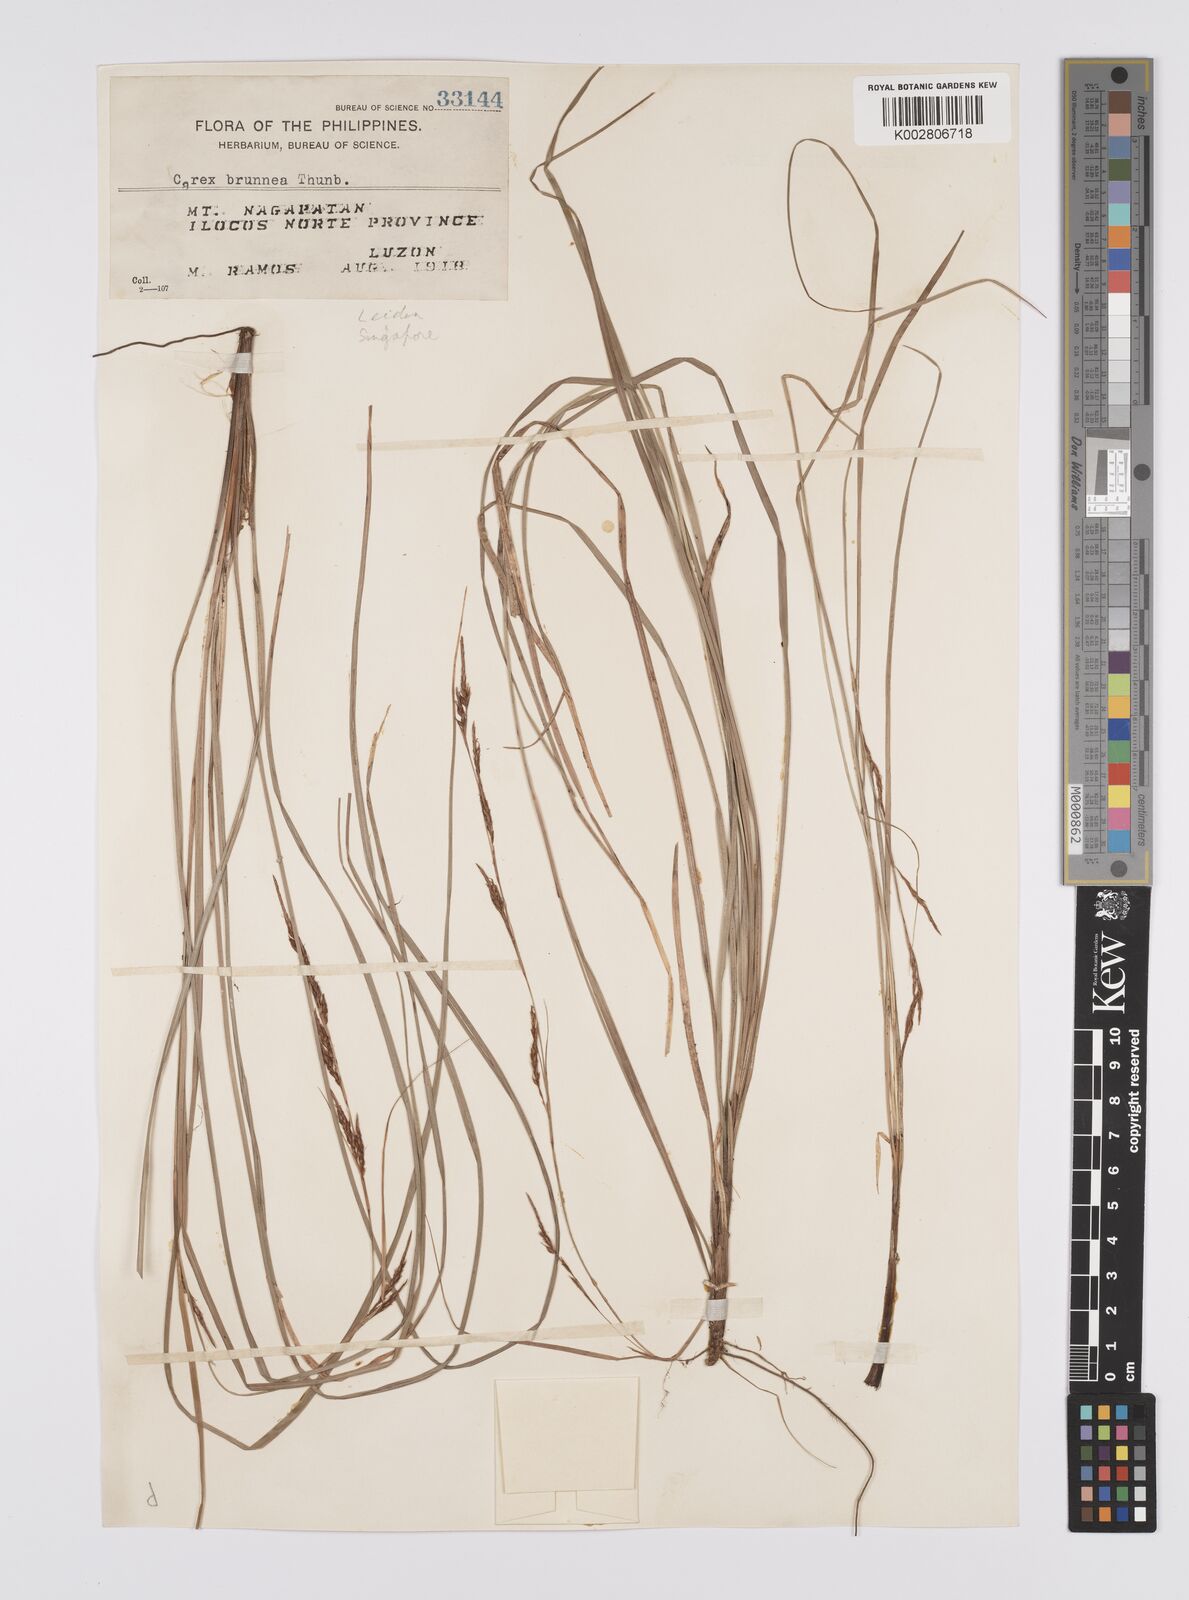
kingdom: Plantae
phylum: Tracheophyta
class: Liliopsida
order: Poales
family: Cyperaceae
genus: Carex
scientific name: Carex brunnea
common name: Greater brown sedge
